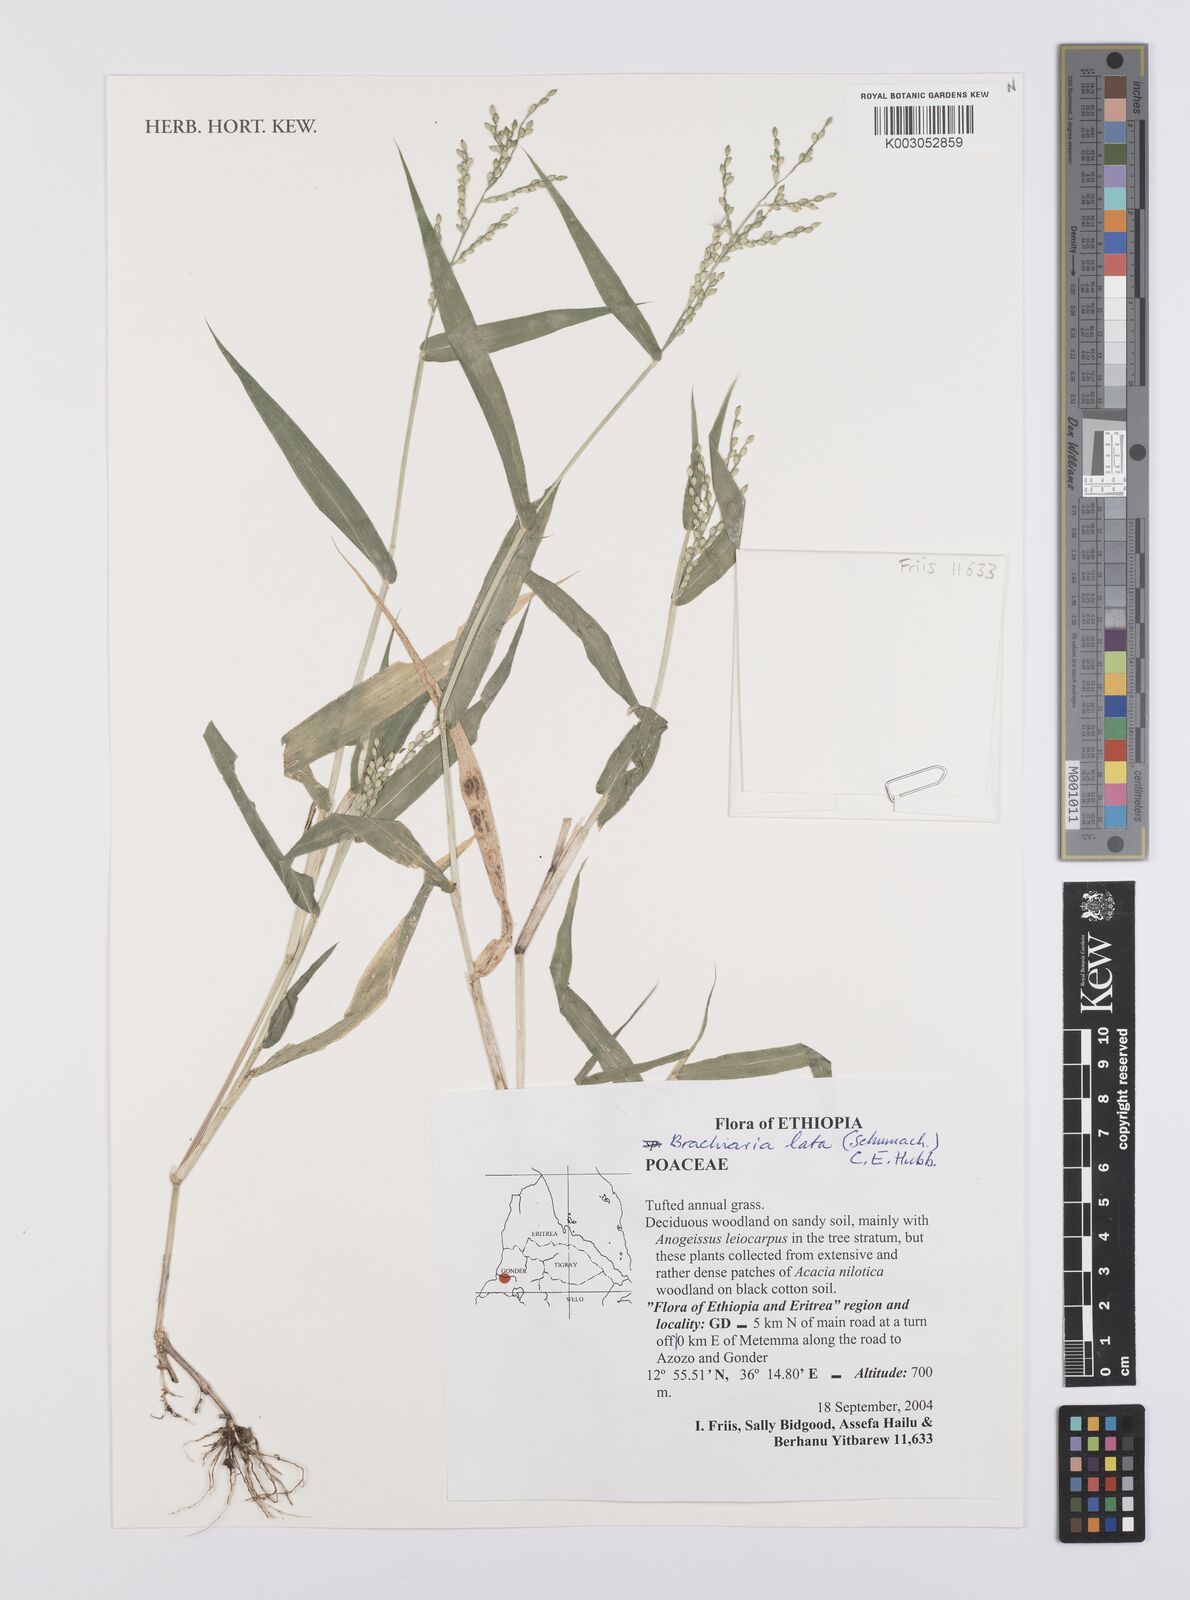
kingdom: Plantae
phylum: Tracheophyta
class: Liliopsida
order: Poales
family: Poaceae
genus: Urochloa
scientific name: Urochloa lata
